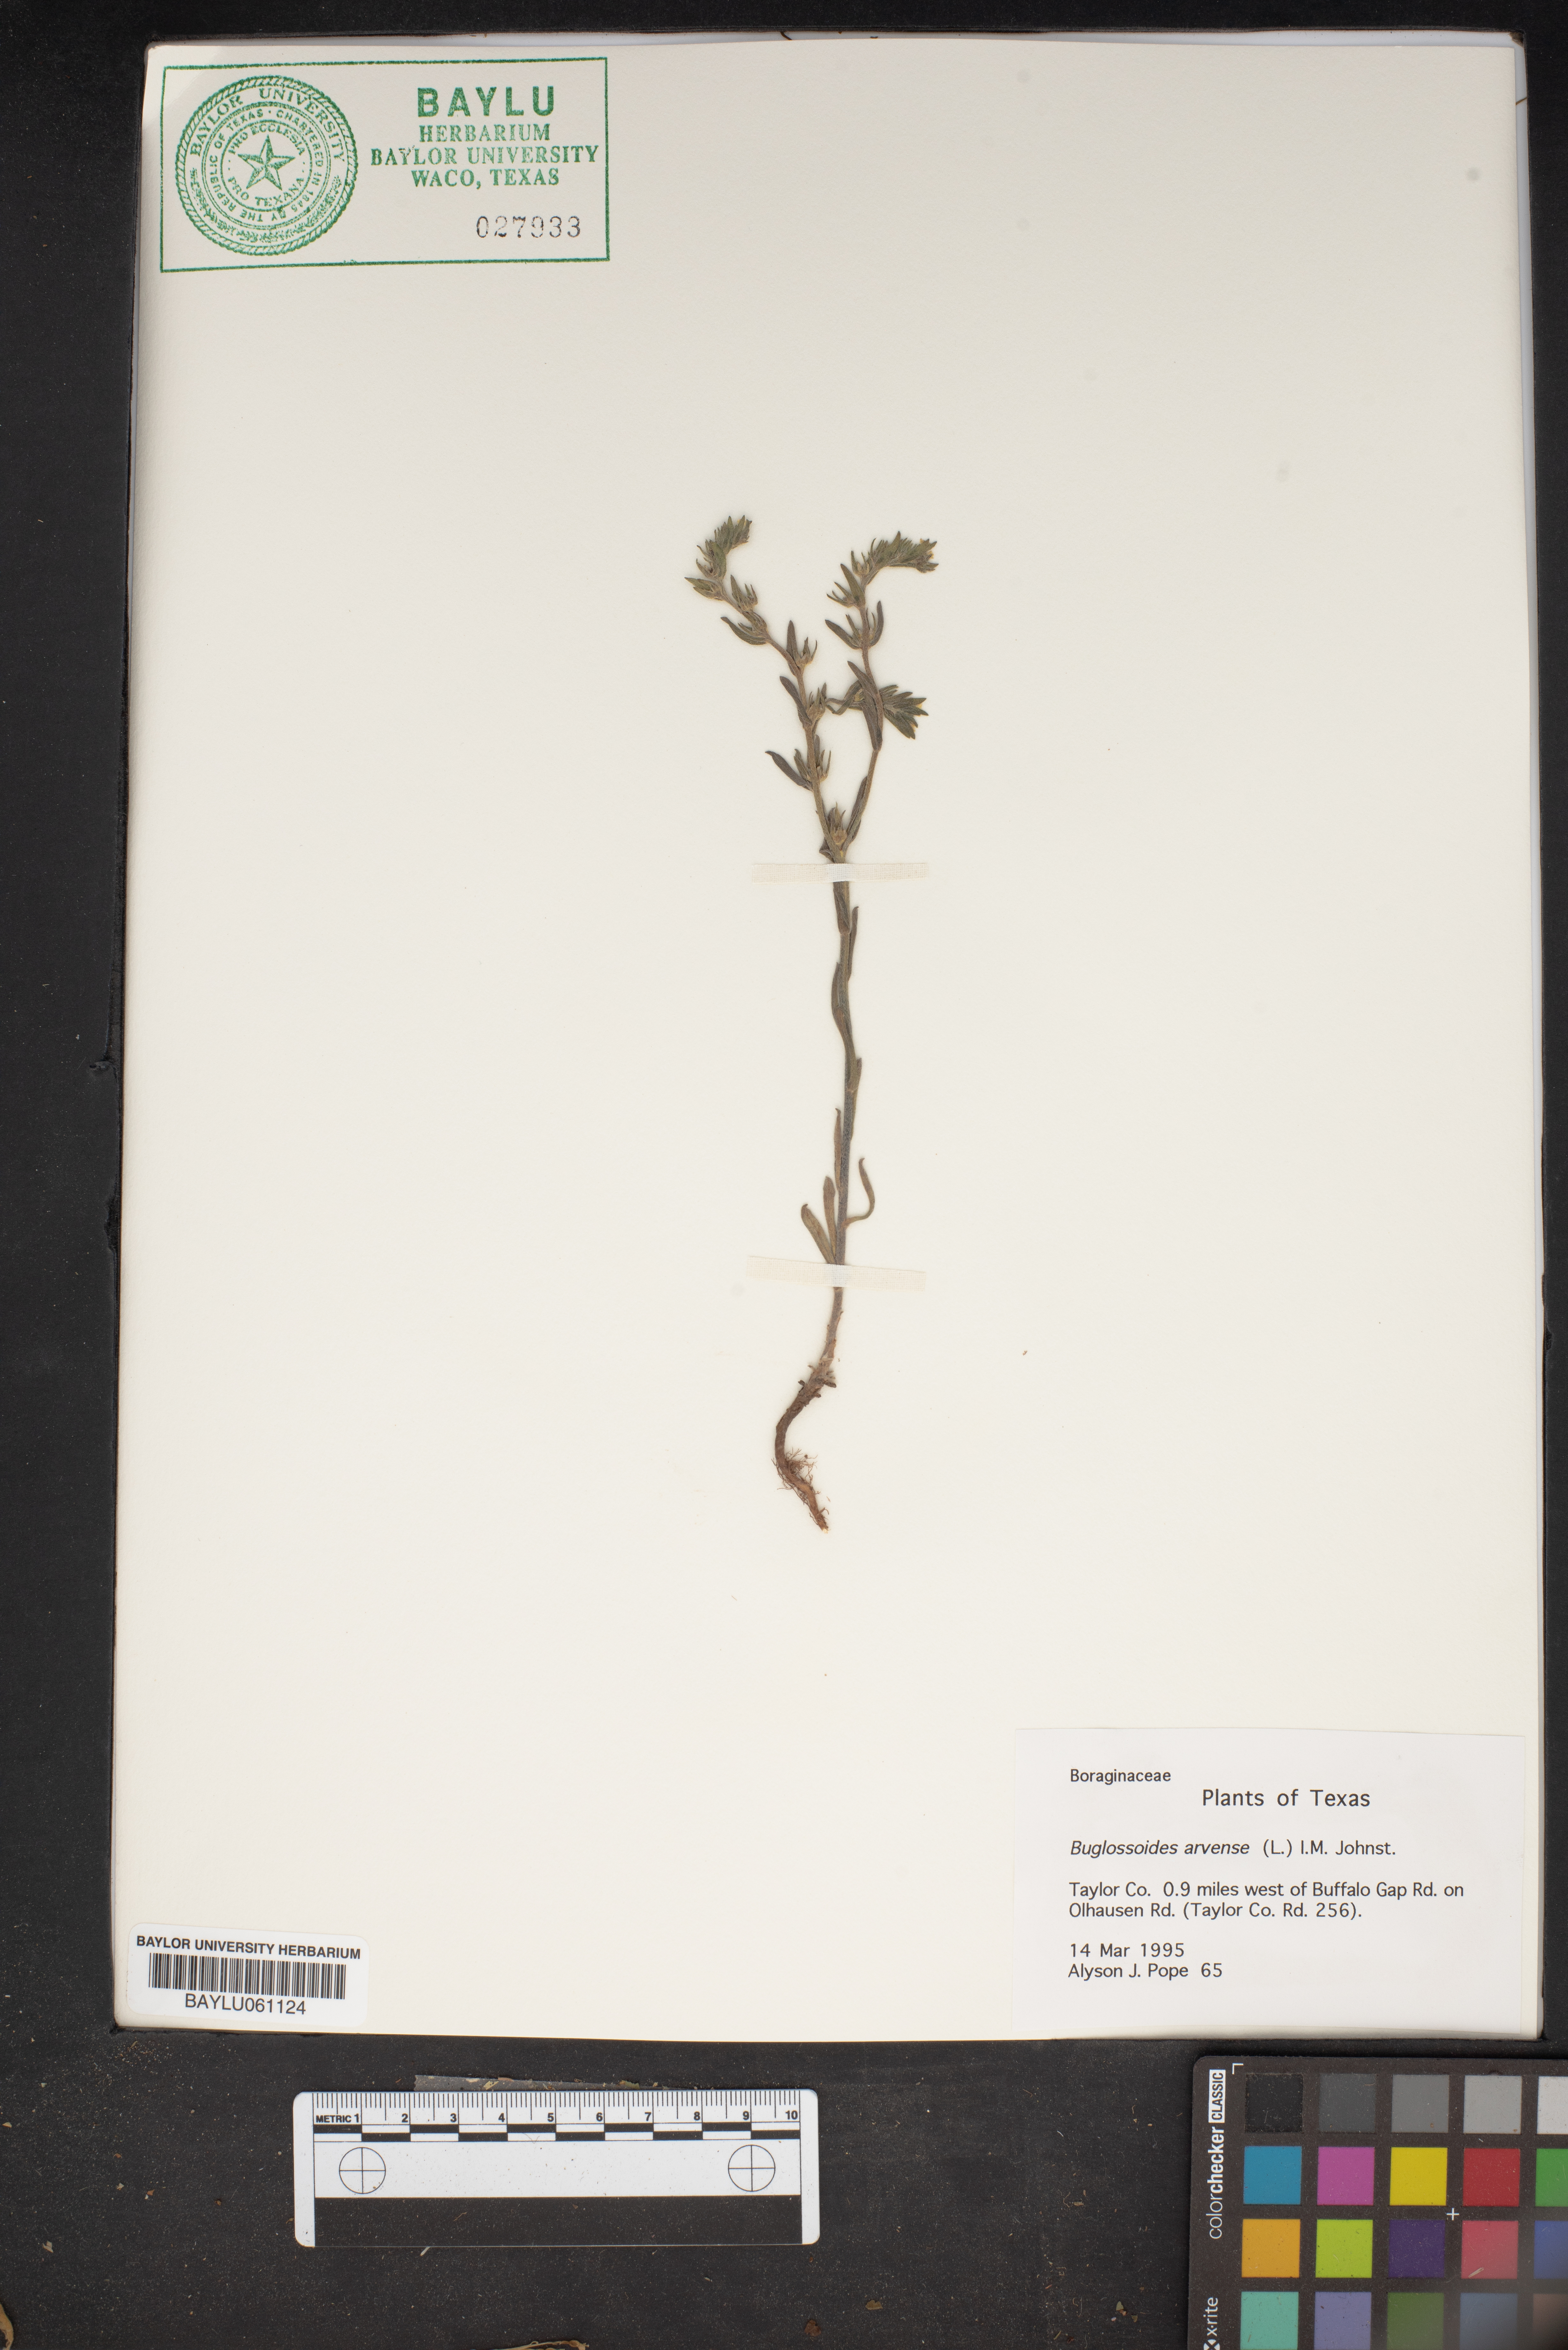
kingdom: Plantae
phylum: Tracheophyta
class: Magnoliopsida
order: Boraginales
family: Boraginaceae
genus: Buglossoides
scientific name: Buglossoides arvensis
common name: Corn gromwell
